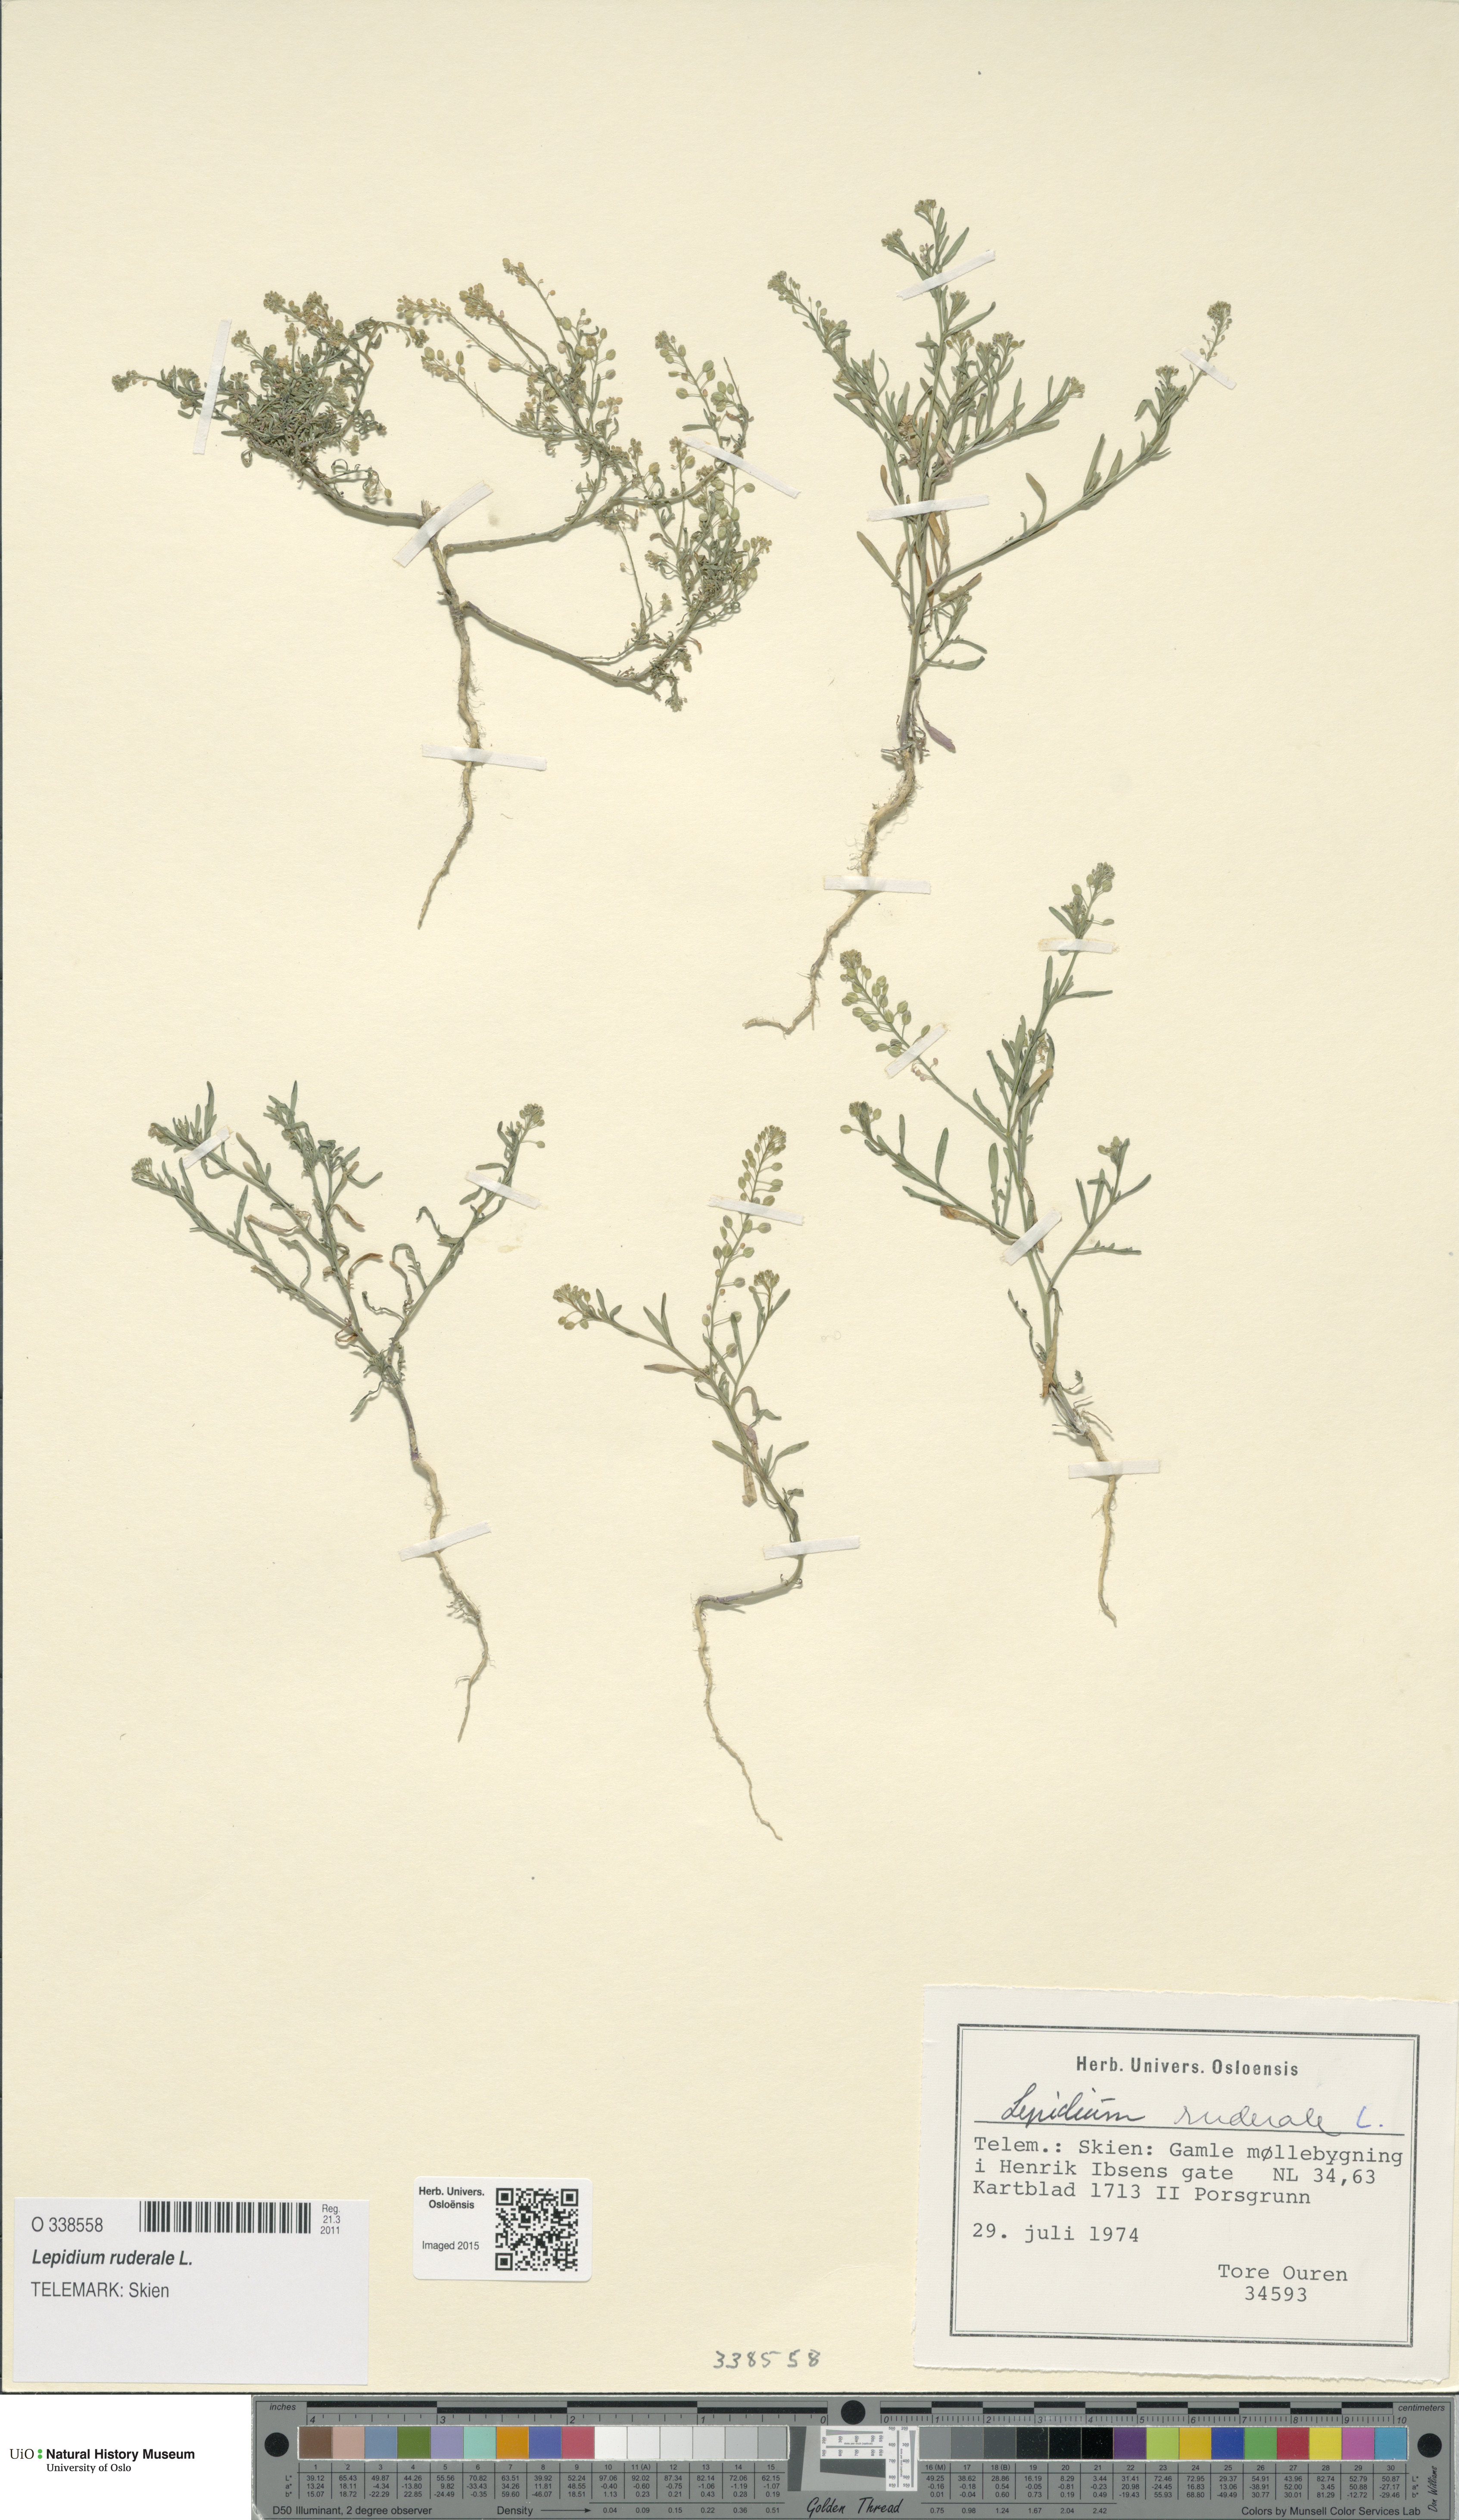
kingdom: Plantae
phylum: Tracheophyta
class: Magnoliopsida
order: Brassicales
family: Brassicaceae
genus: Lepidium
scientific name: Lepidium ruderale
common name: Narrow-leaved pepperwort
